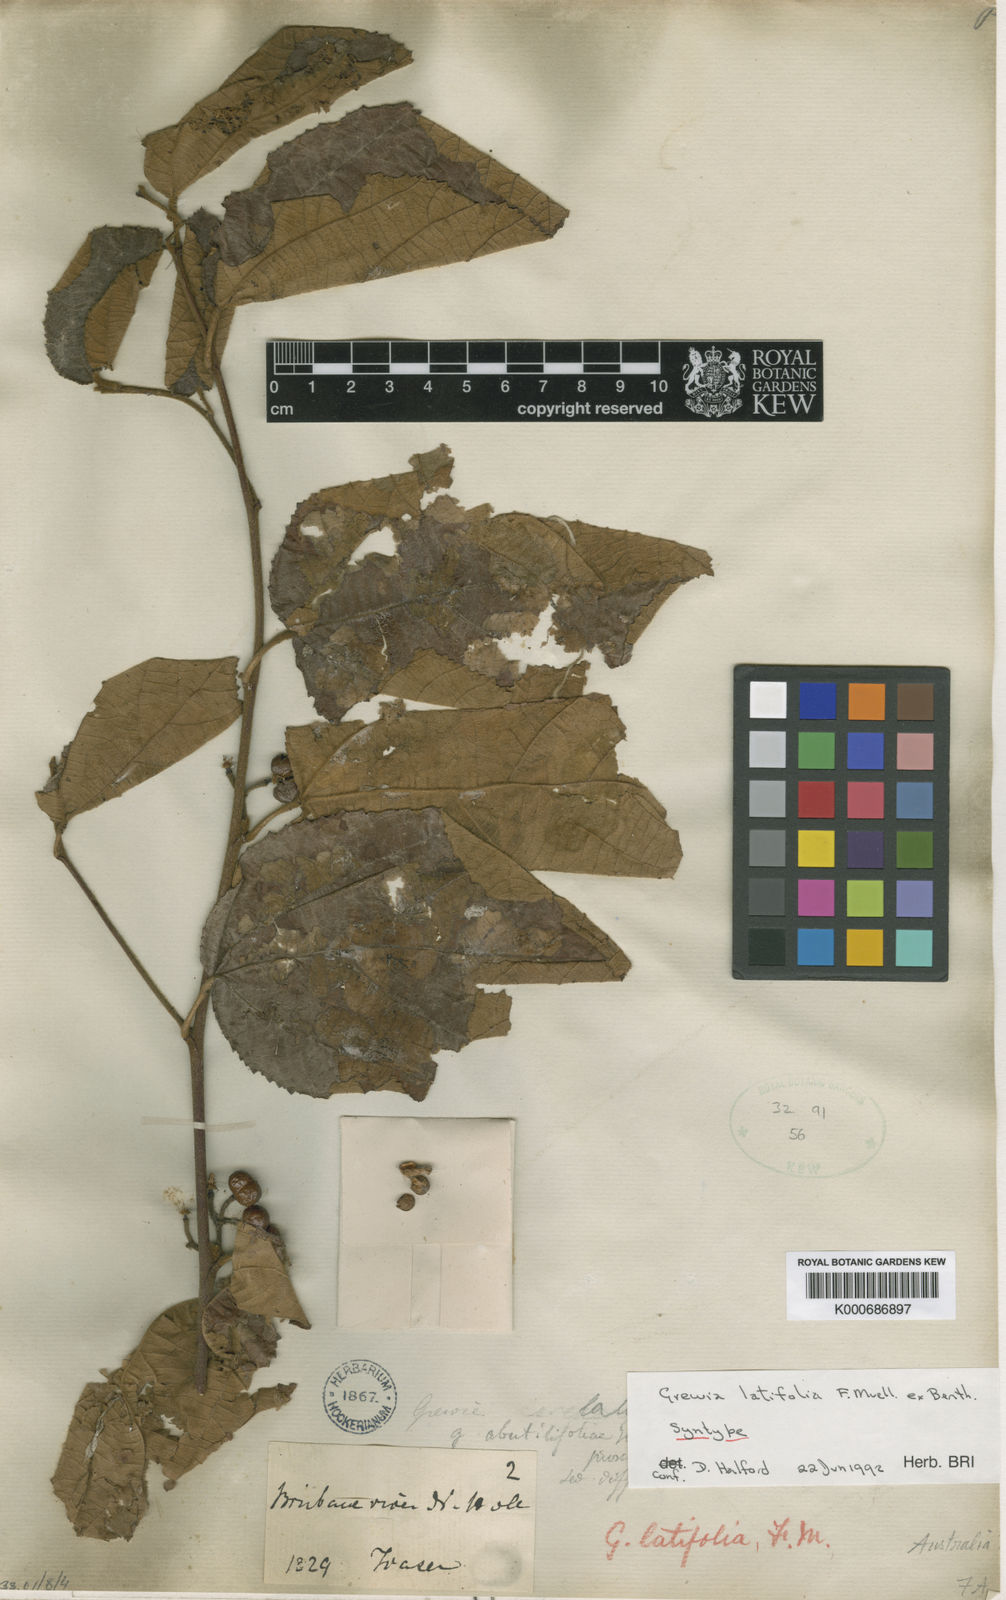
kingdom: Plantae
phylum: Tracheophyta
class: Magnoliopsida
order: Malvales
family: Malvaceae
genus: Grewia
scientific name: Grewia apetala
